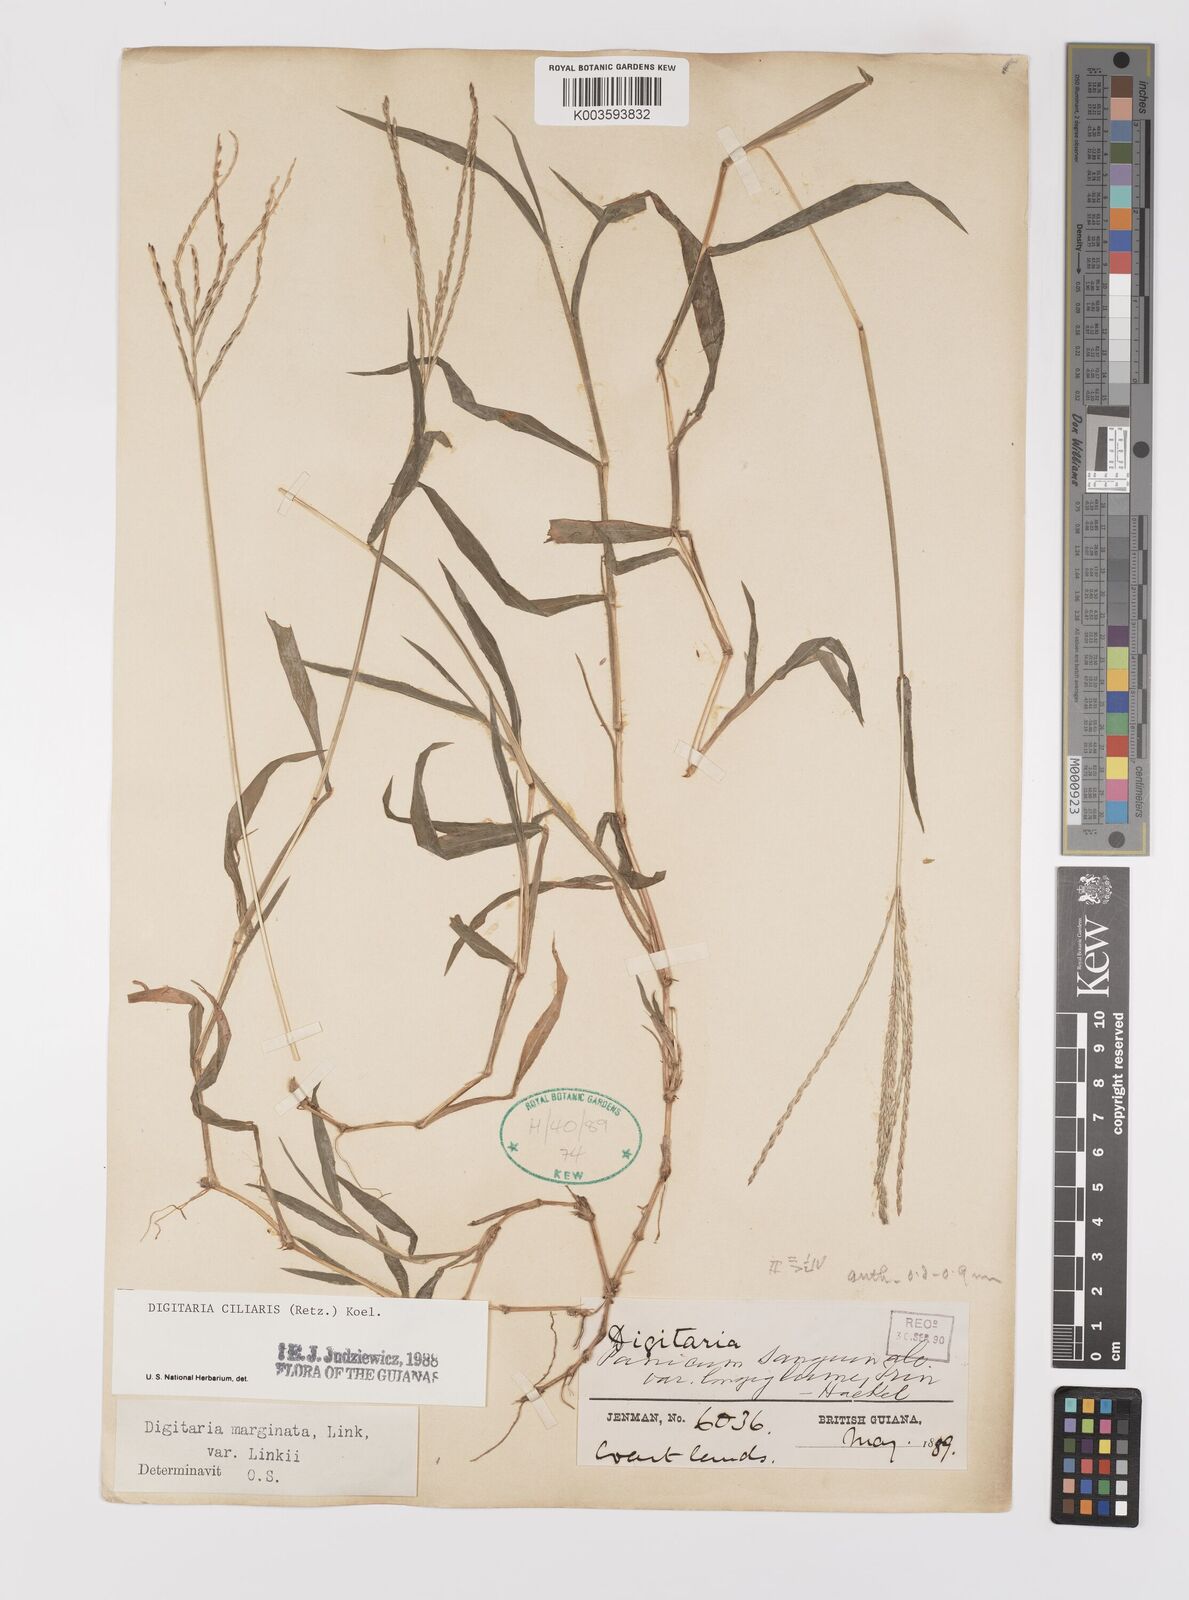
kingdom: Plantae
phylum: Tracheophyta
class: Liliopsida
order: Poales
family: Poaceae
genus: Digitaria
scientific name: Digitaria ciliaris
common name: Tropical finger-grass
